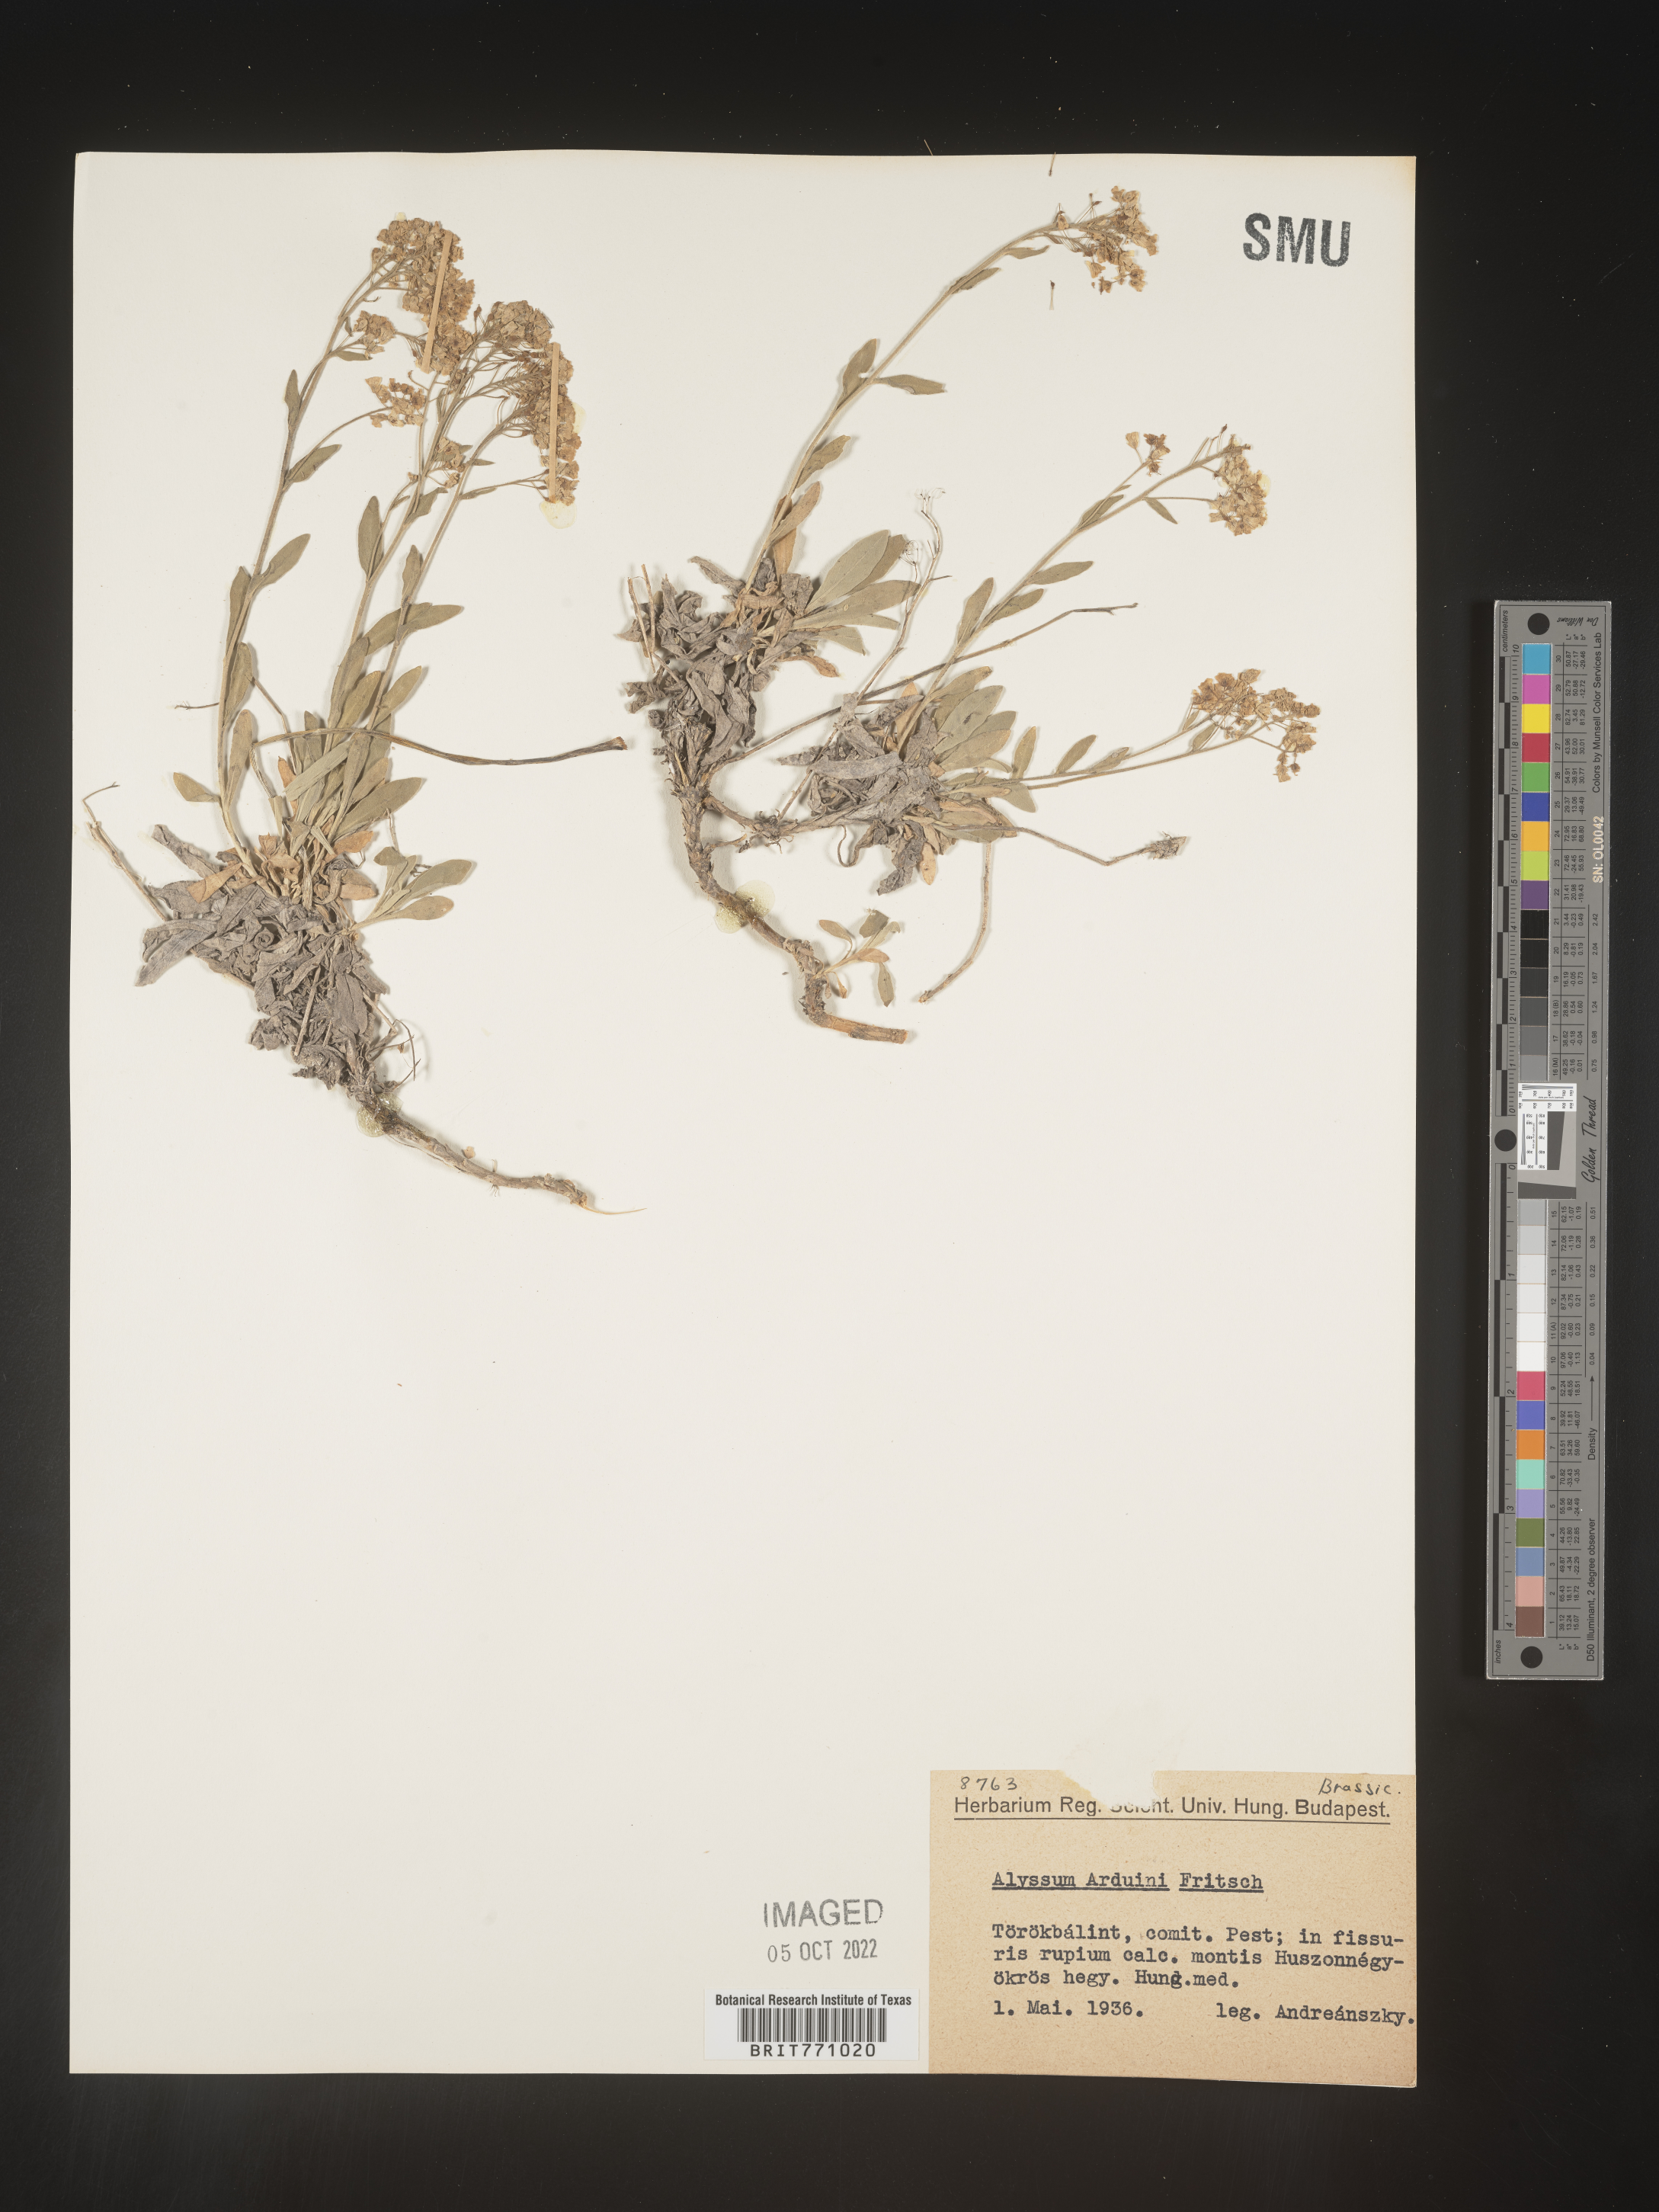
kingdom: Plantae
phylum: Tracheophyta
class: Magnoliopsida
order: Brassicales
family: Brassicaceae
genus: Alyssum
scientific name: Alyssum
